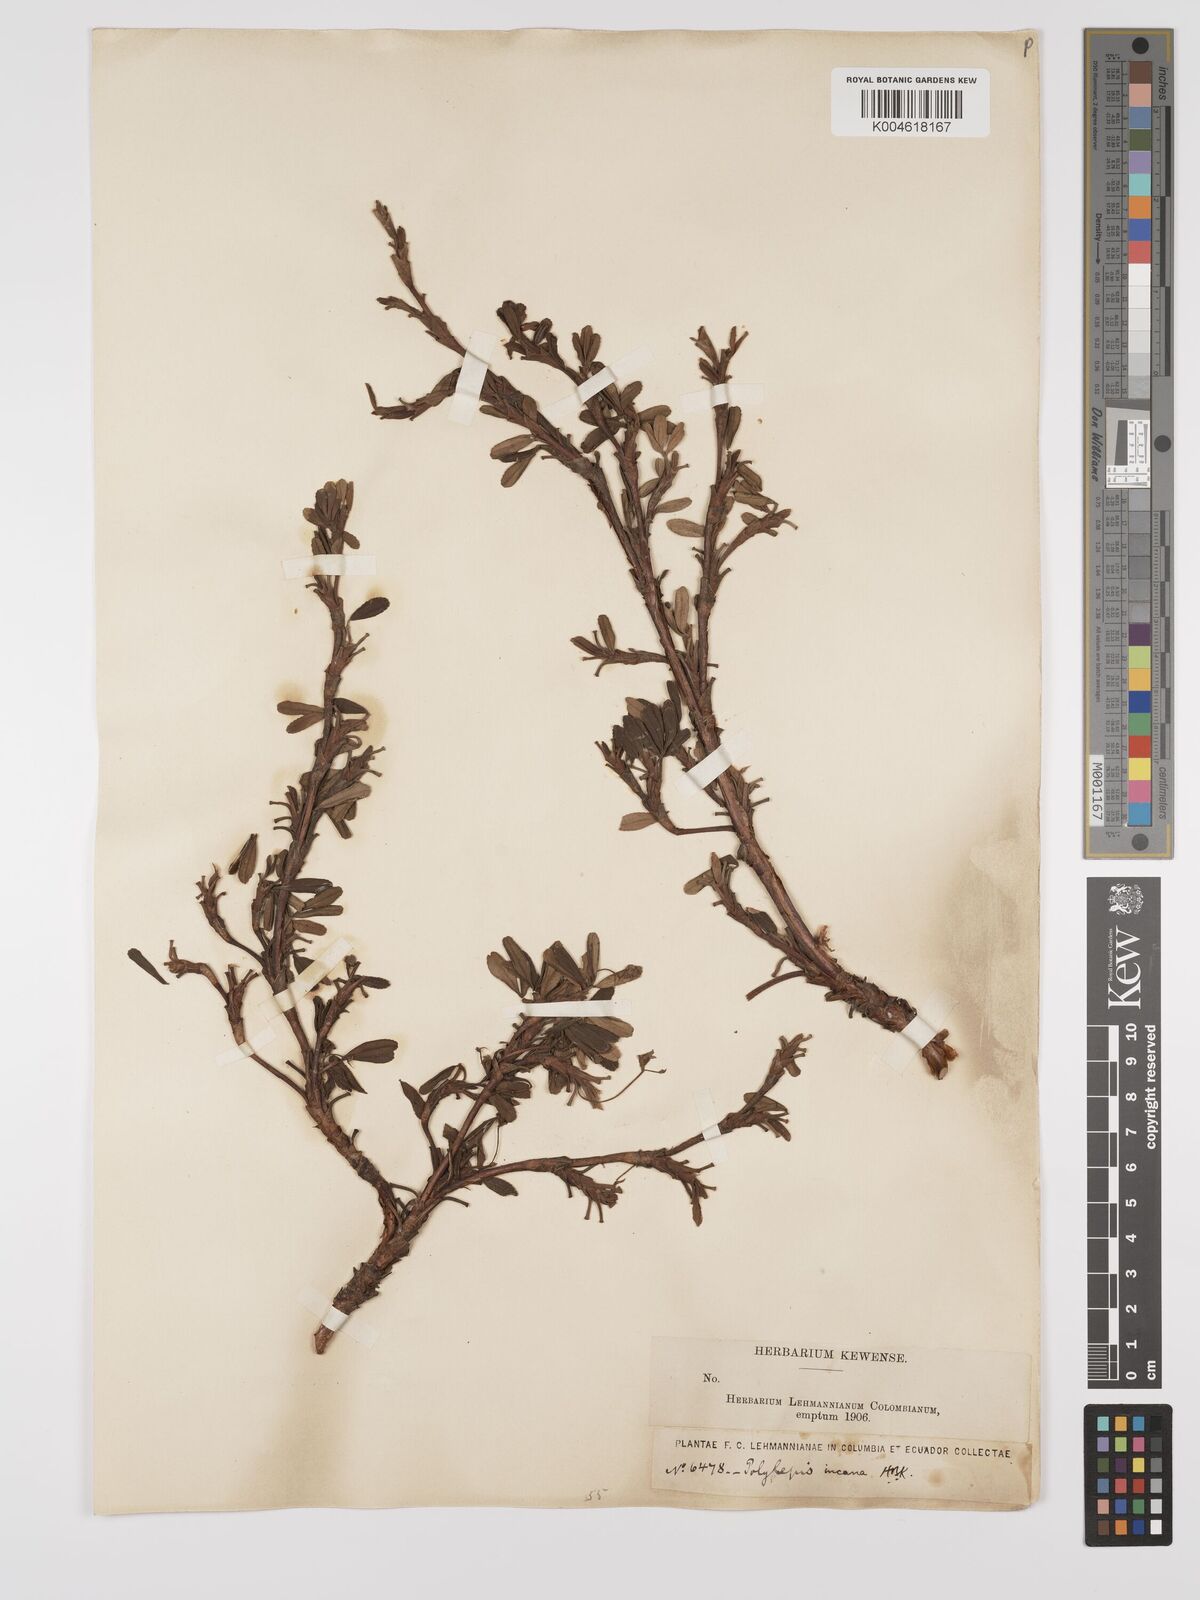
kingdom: Plantae
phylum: Tracheophyta
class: Magnoliopsida
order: Rosales
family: Rosaceae
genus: Polylepis
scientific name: Polylepis incana
